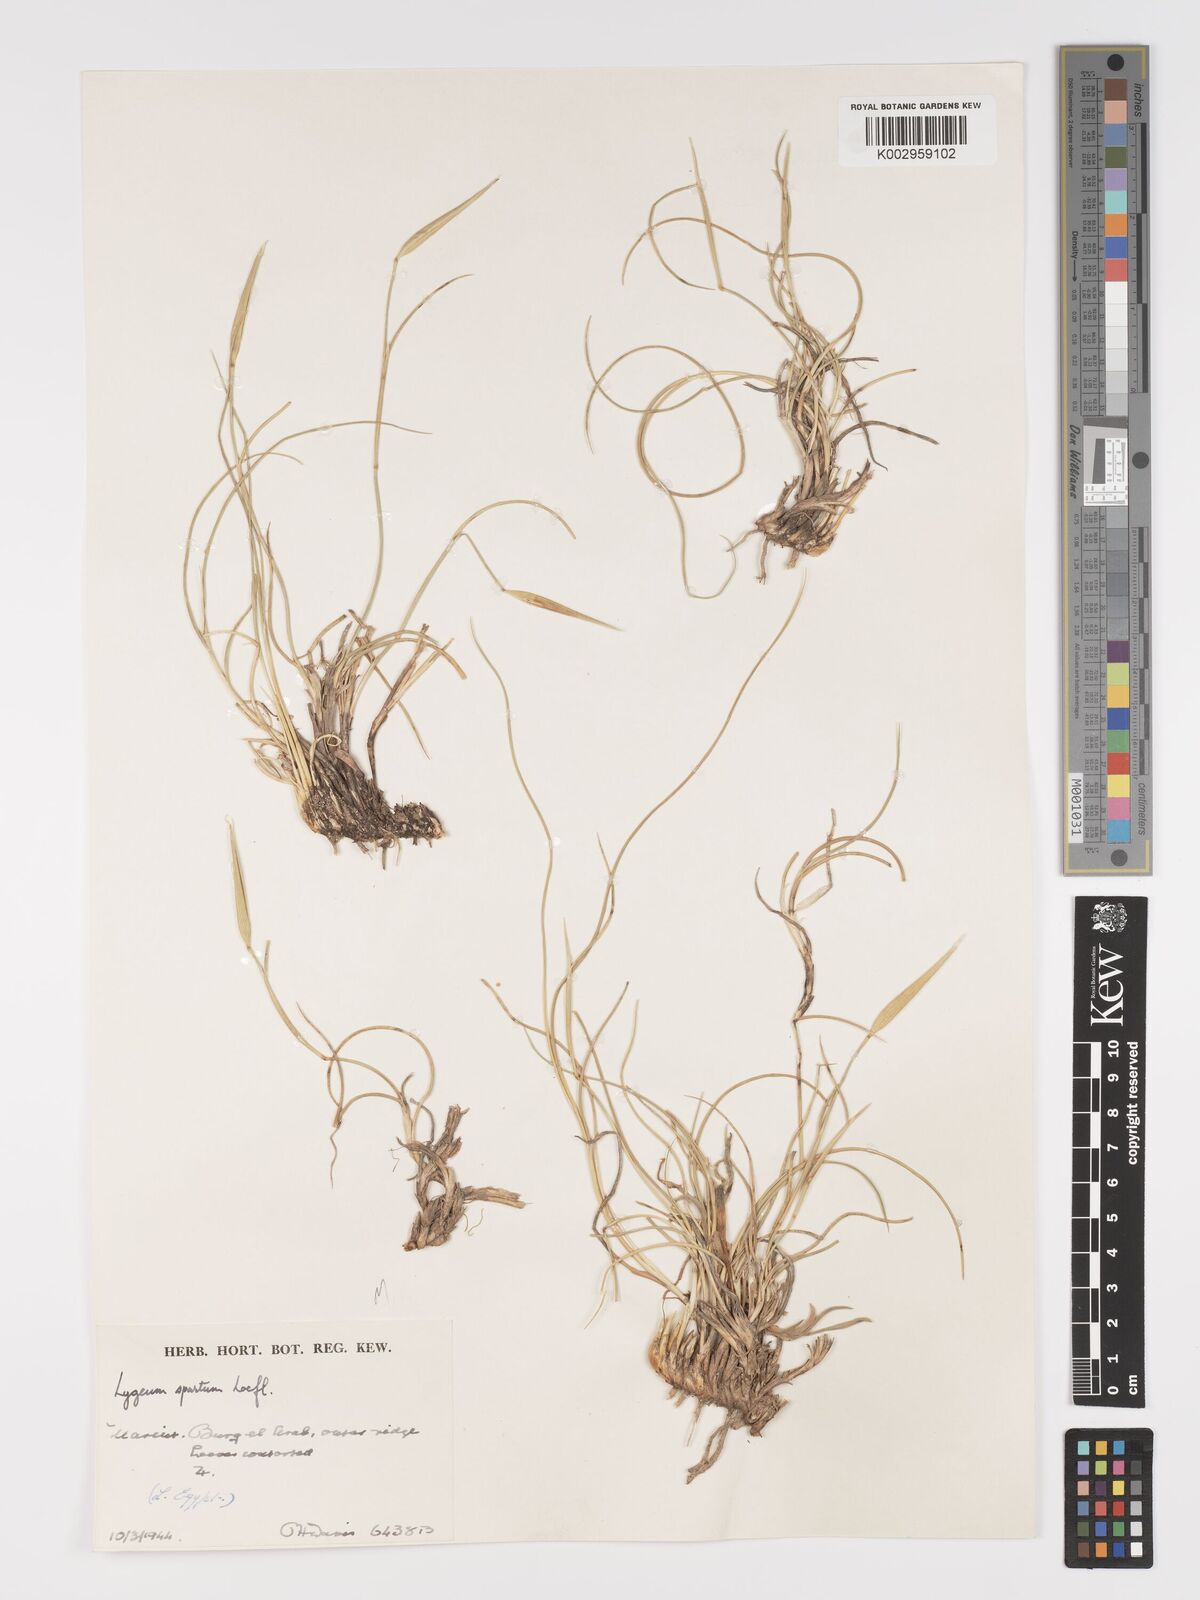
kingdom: Plantae
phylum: Tracheophyta
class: Liliopsida
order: Poales
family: Poaceae
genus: Lygeum
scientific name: Lygeum spartum
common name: Albardine
